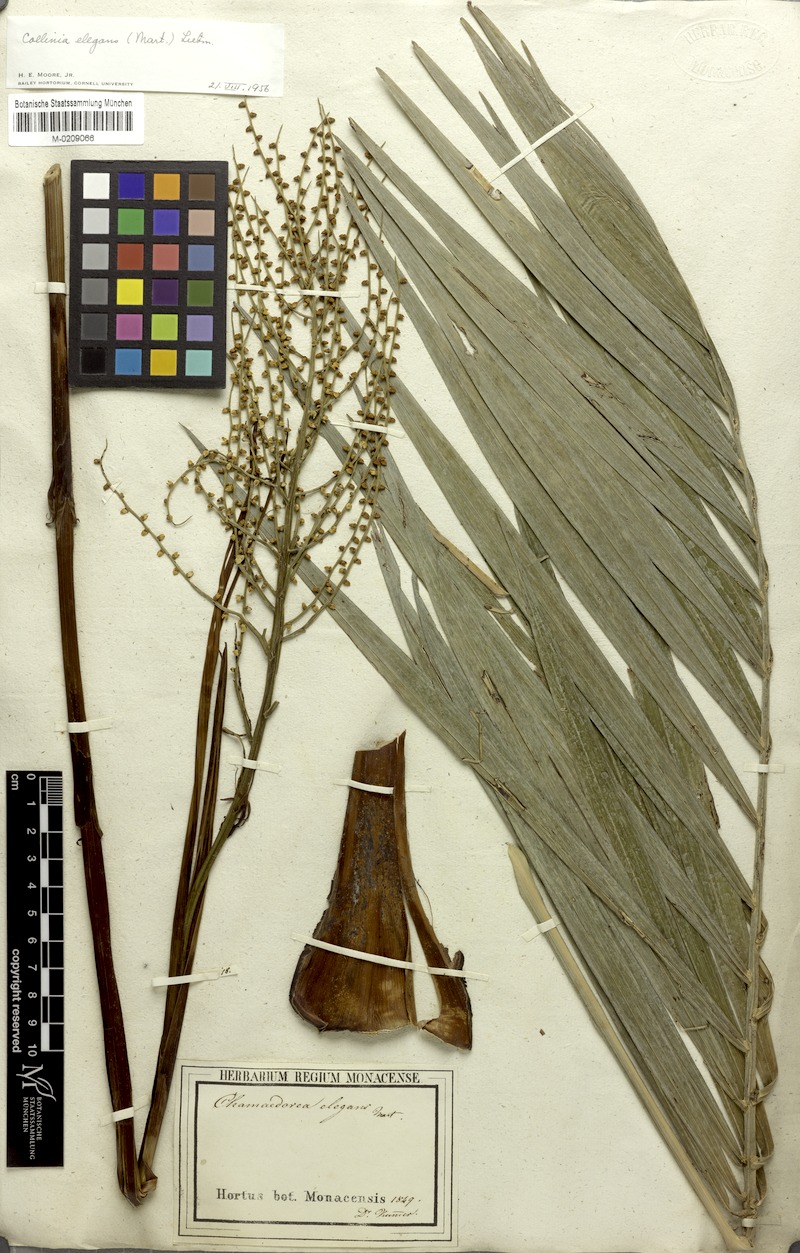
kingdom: Plantae
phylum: Tracheophyta
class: Liliopsida
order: Arecales
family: Arecaceae
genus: Chamaedorea
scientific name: Chamaedorea elegans
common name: Good-luck palm
